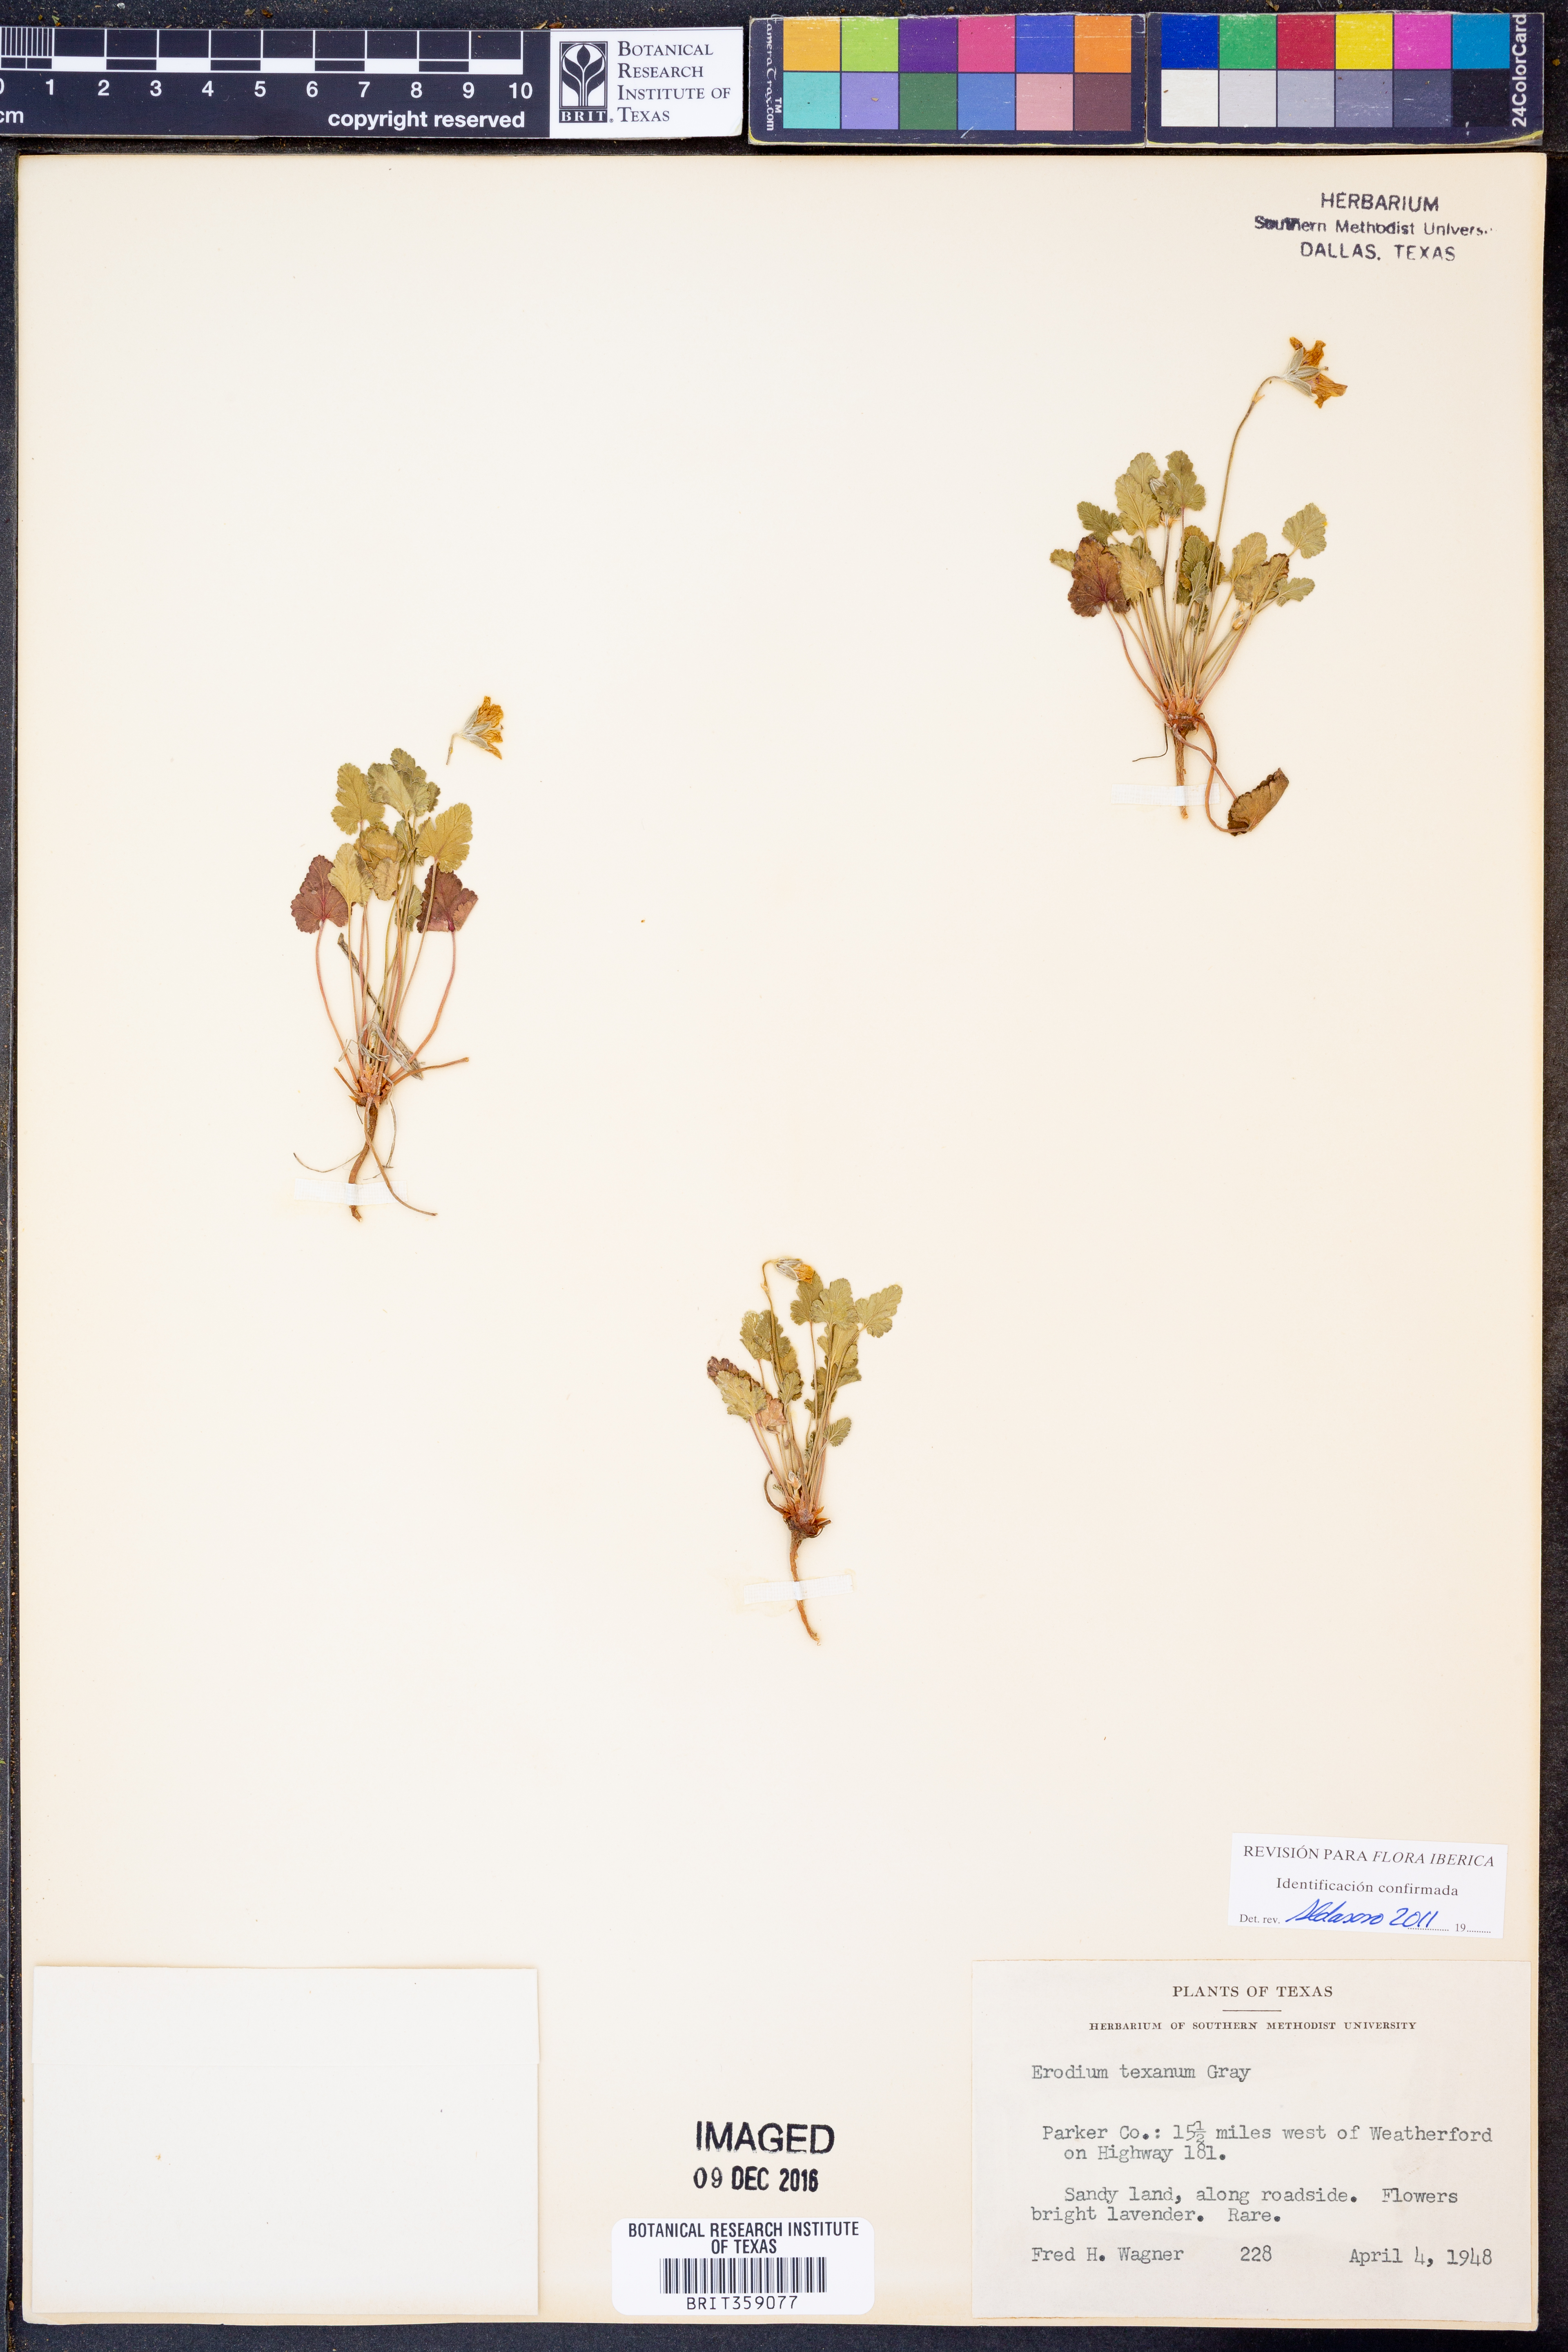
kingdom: Plantae
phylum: Tracheophyta
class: Magnoliopsida
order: Geraniales
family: Geraniaceae
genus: Erodium
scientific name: Erodium texanum
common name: Texas stork's-bill
